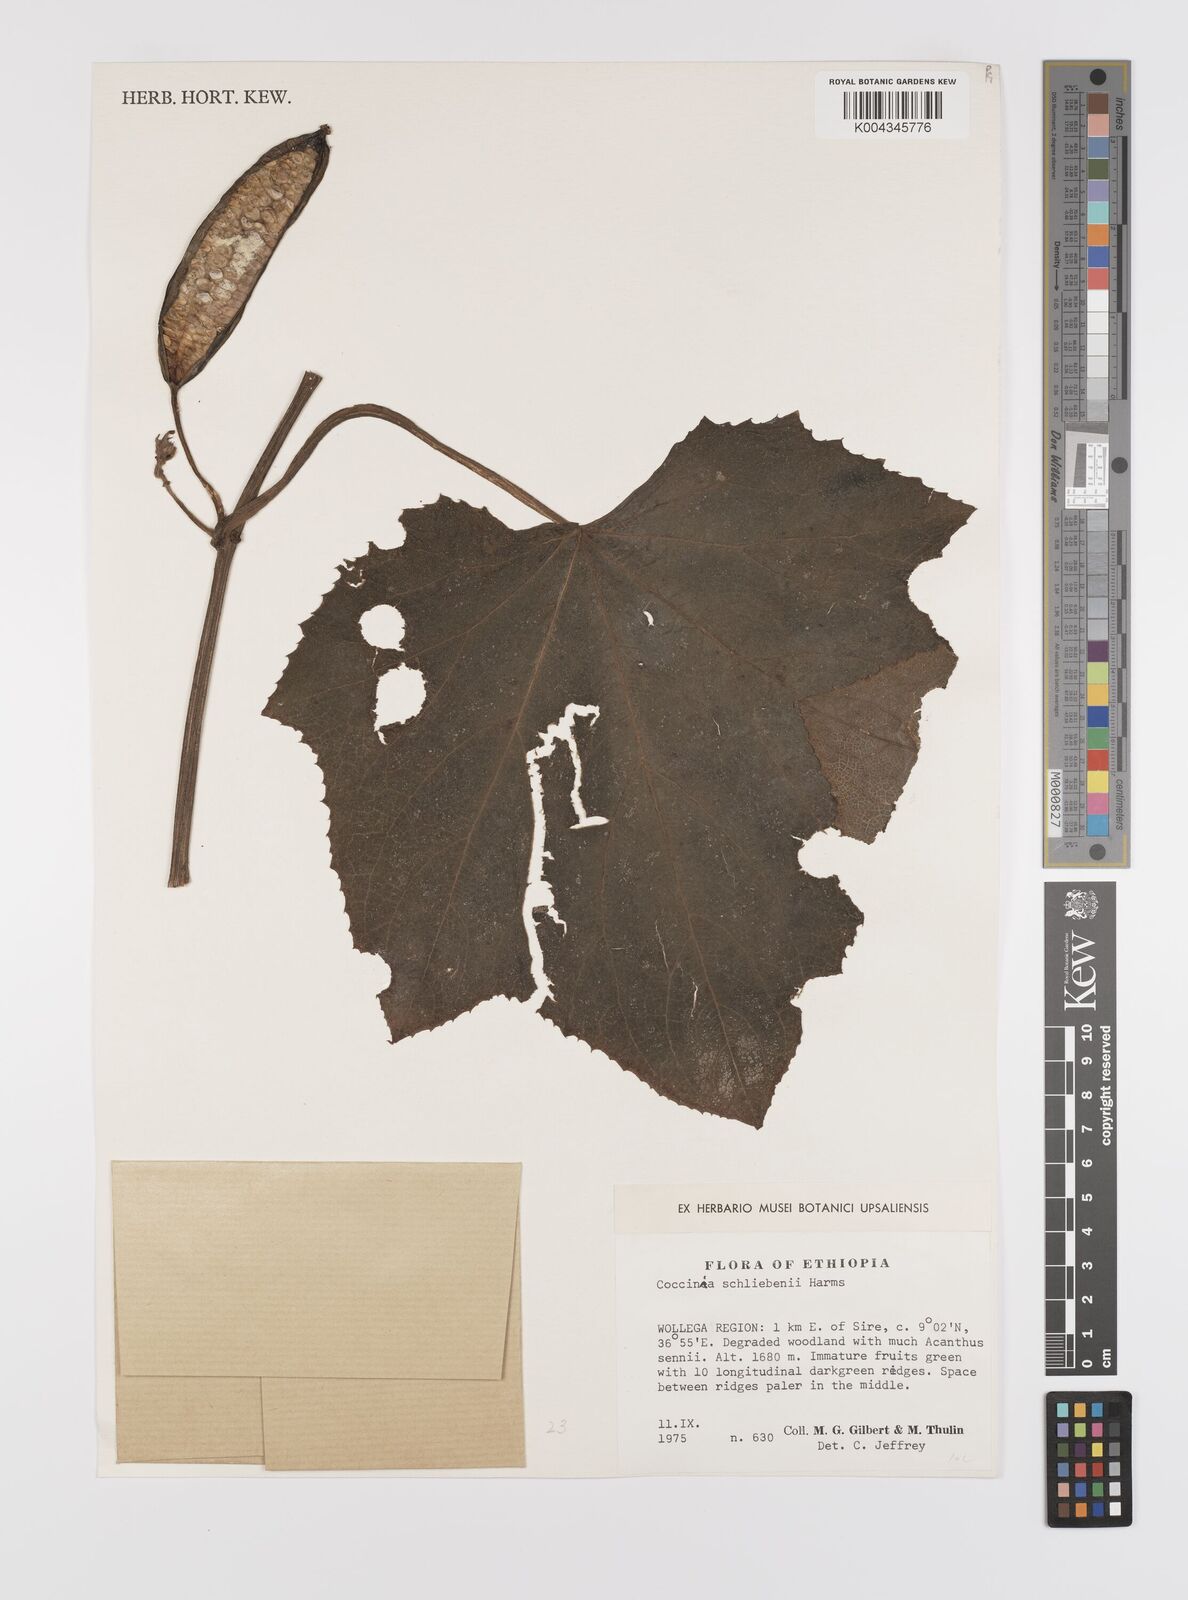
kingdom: Plantae
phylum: Tracheophyta
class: Magnoliopsida
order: Cucurbitales
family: Cucurbitaceae
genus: Coccinia
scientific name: Coccinia schliebenii
